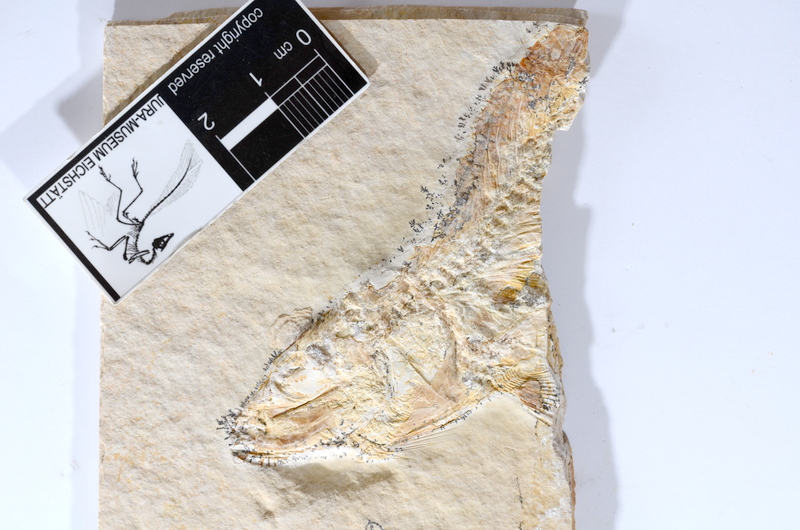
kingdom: Animalia
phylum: Chordata
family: Ascalaboidae
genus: Tharsis
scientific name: Tharsis dubius
